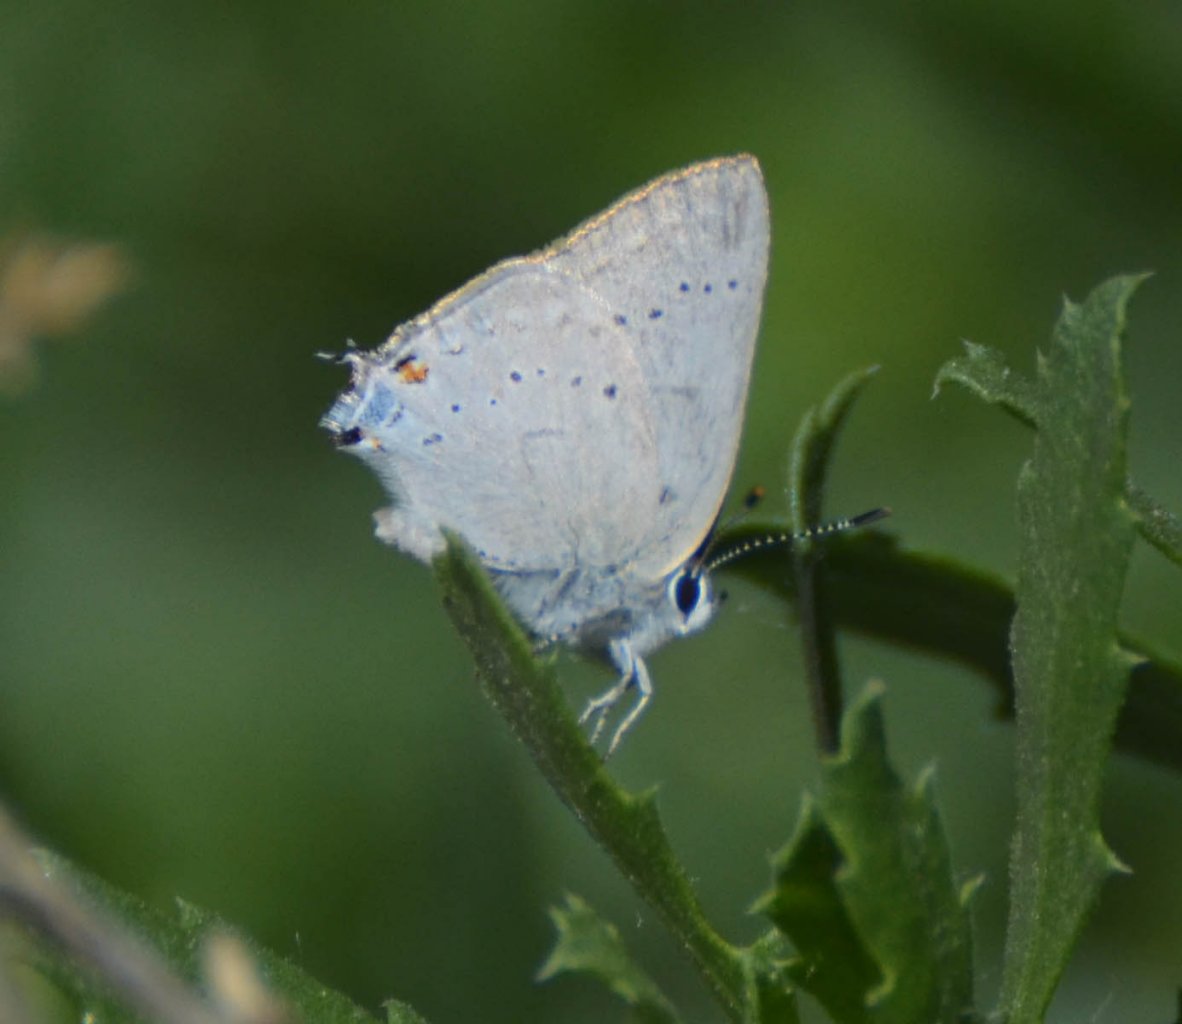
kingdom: Animalia
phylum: Arthropoda
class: Insecta
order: Lepidoptera
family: Lycaenidae
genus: Strymon
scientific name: Strymon sylvinus
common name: Sylvan Hairstreak
